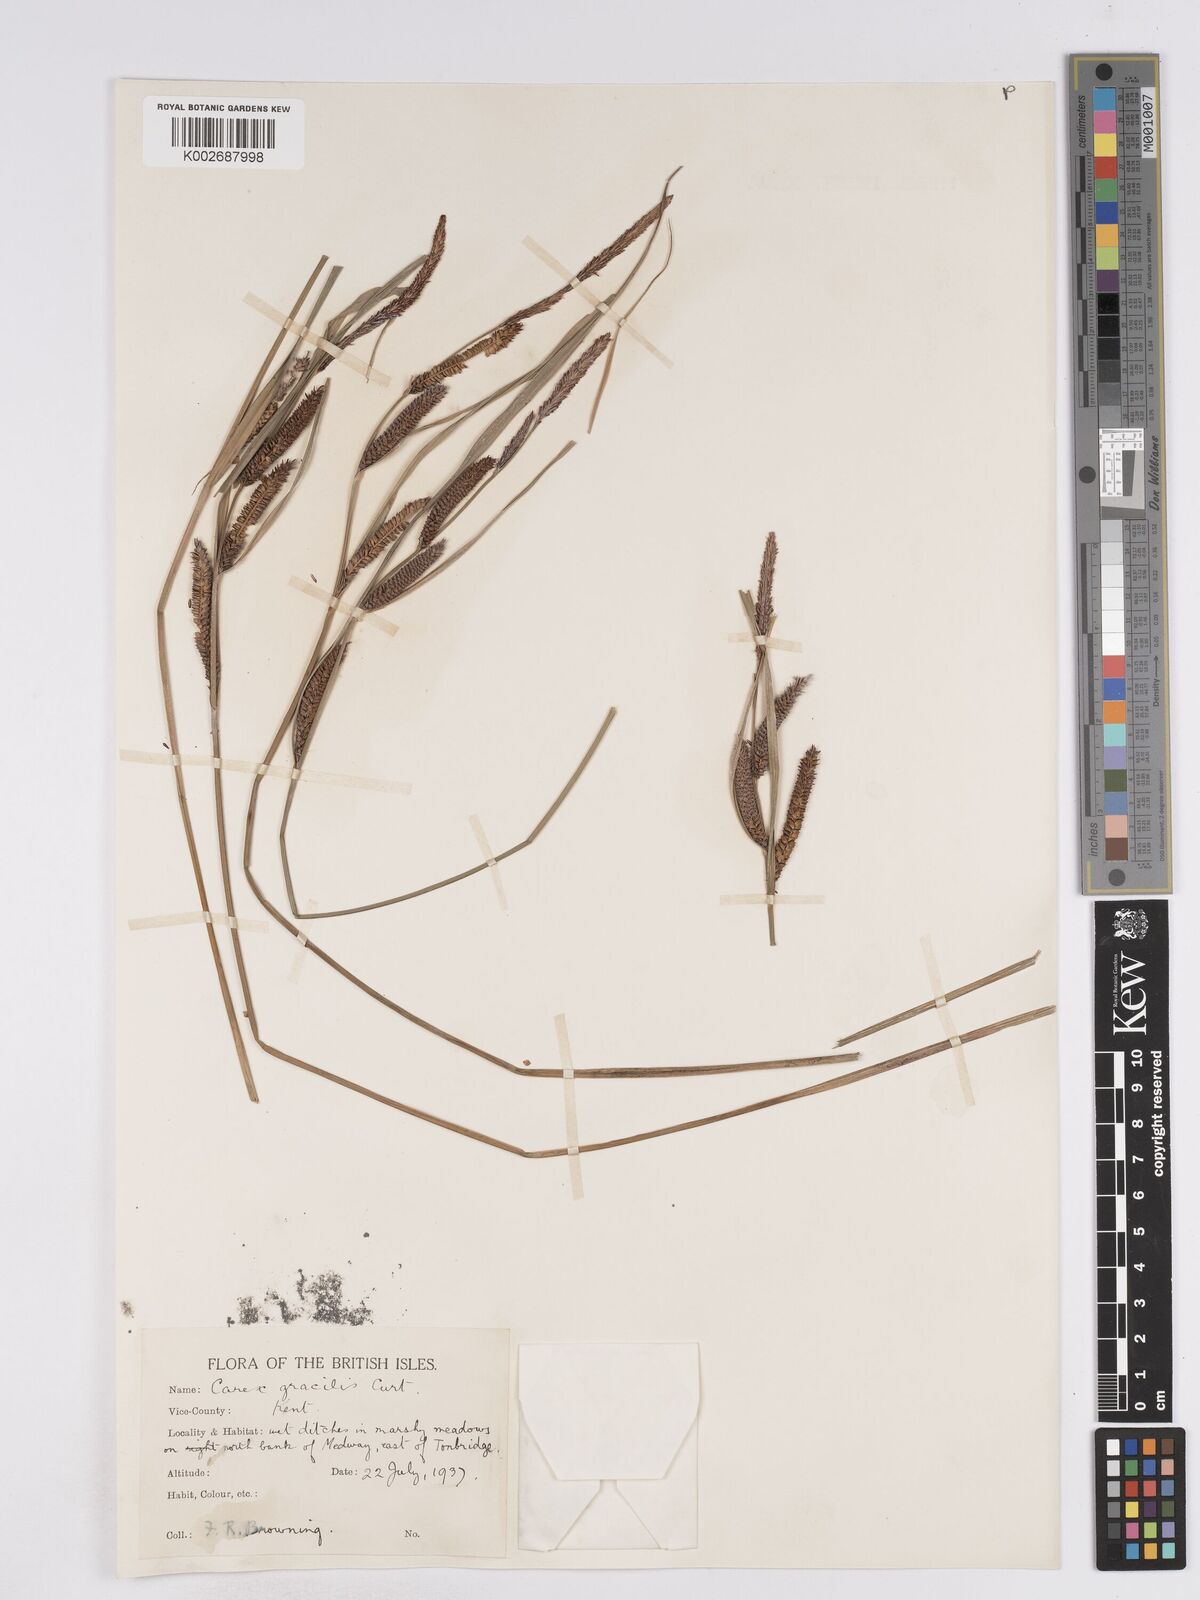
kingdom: Plantae
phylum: Tracheophyta
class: Liliopsida
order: Poales
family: Cyperaceae
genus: Carex
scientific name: Carex acuta
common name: Slender tufted-sedge
